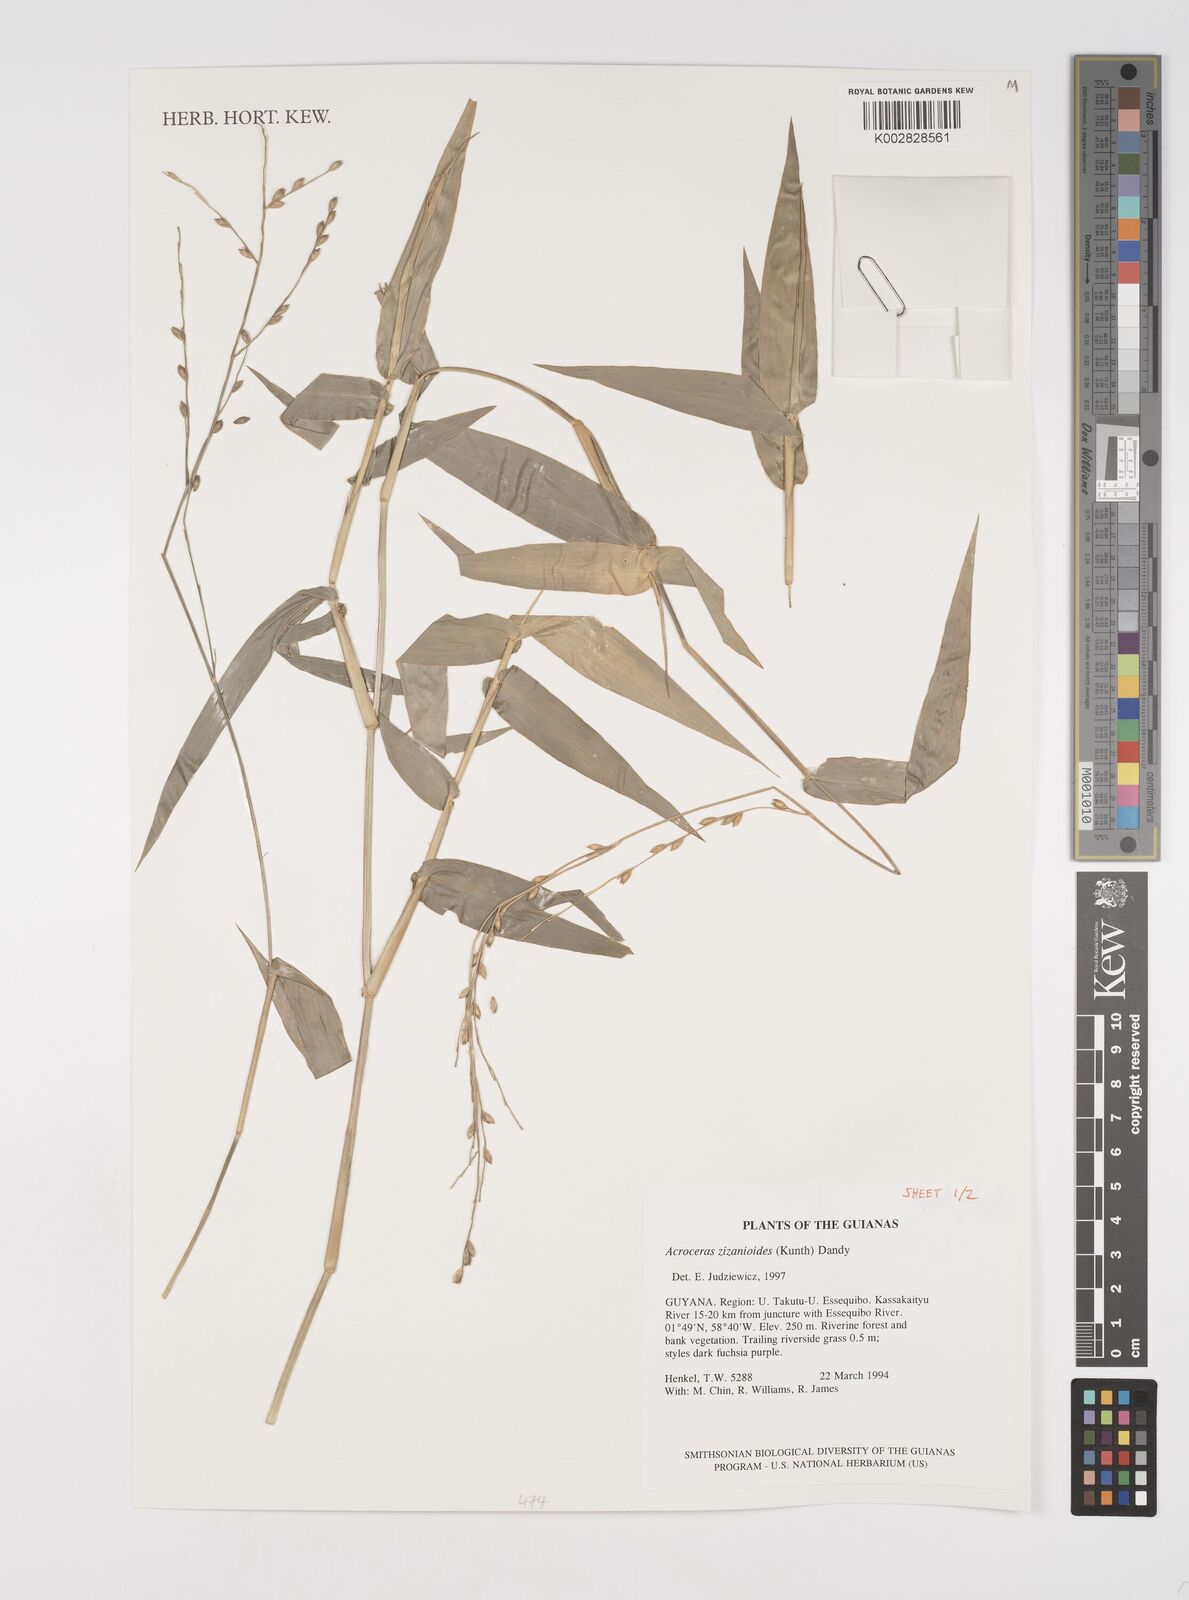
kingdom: Plantae
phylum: Tracheophyta
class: Liliopsida
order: Poales
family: Poaceae
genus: Acroceras
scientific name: Acroceras zizanioides
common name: Oat grass
